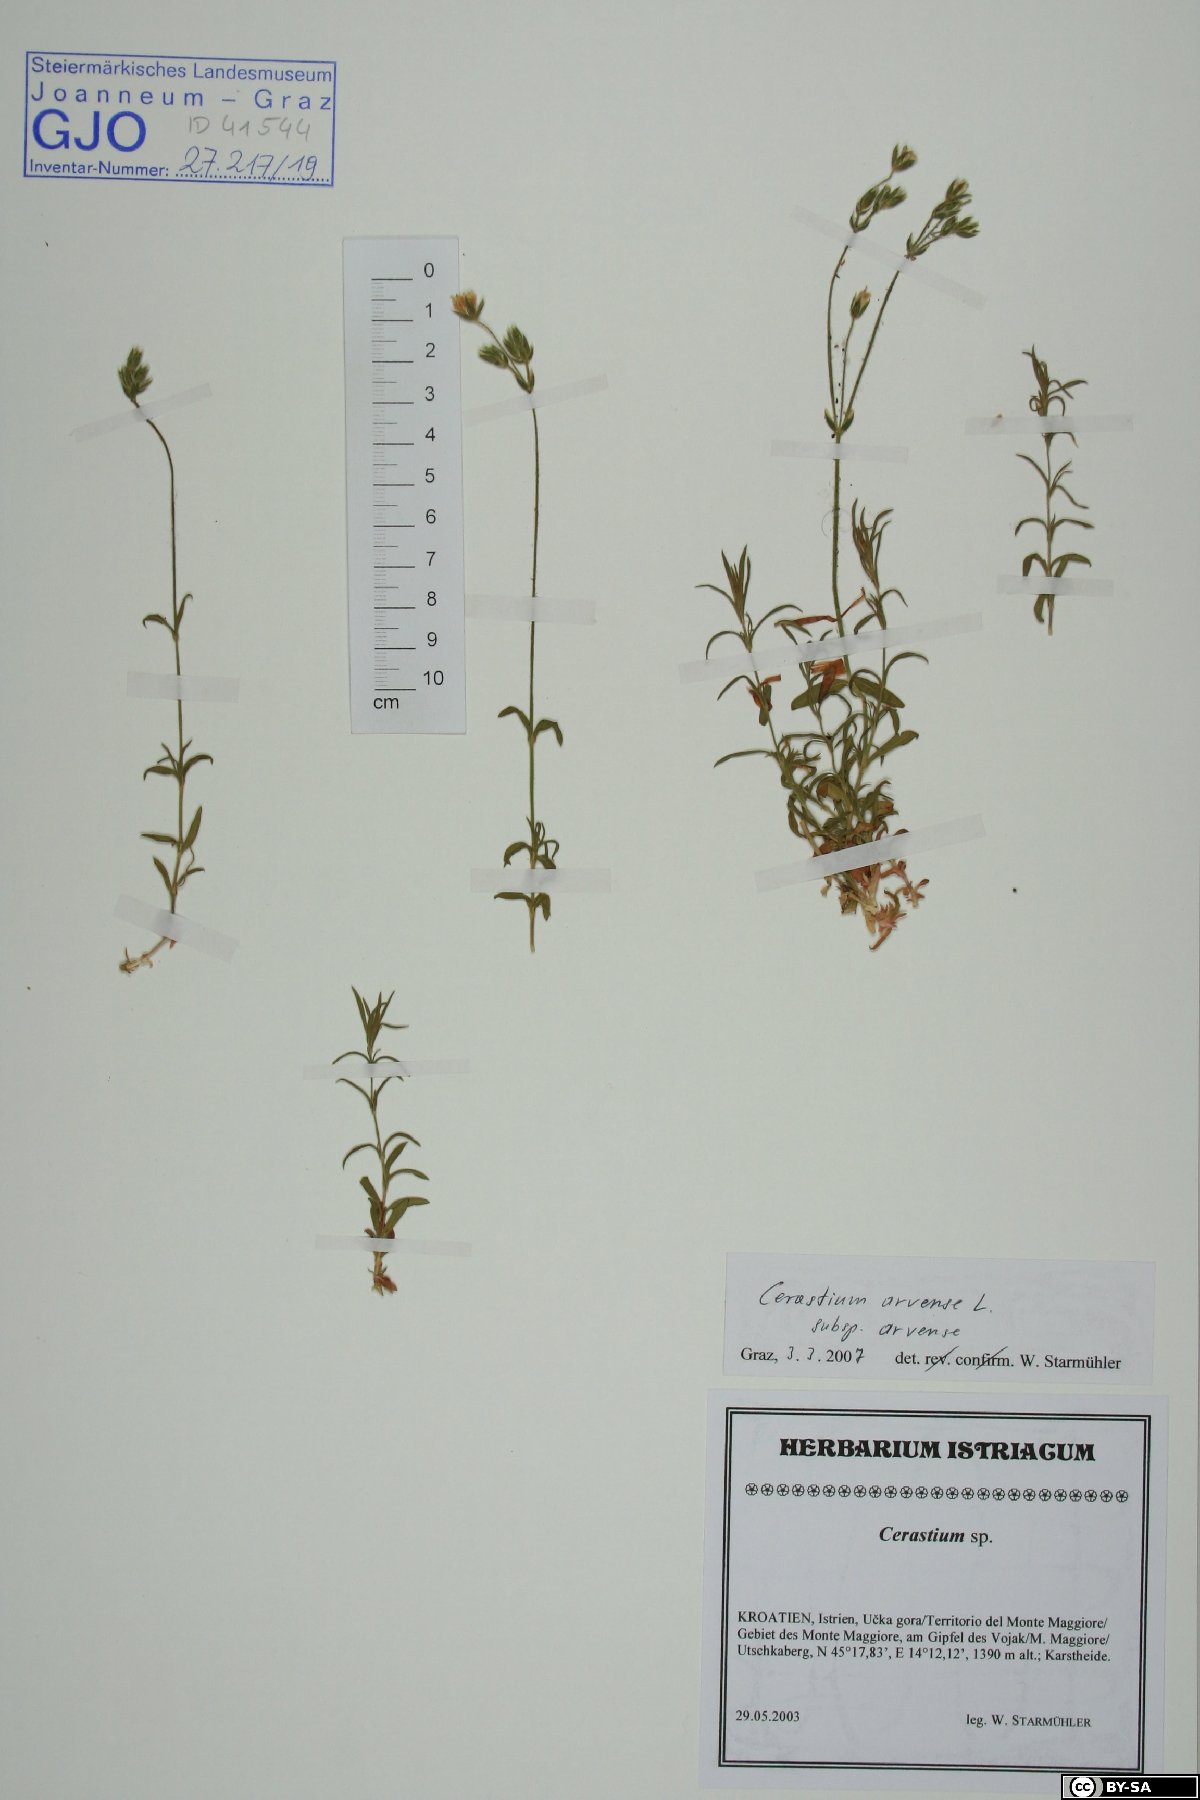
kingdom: Plantae
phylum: Tracheophyta
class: Magnoliopsida
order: Caryophyllales
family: Caryophyllaceae
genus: Cerastium
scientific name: Cerastium arvense
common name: Field mouse-ear
